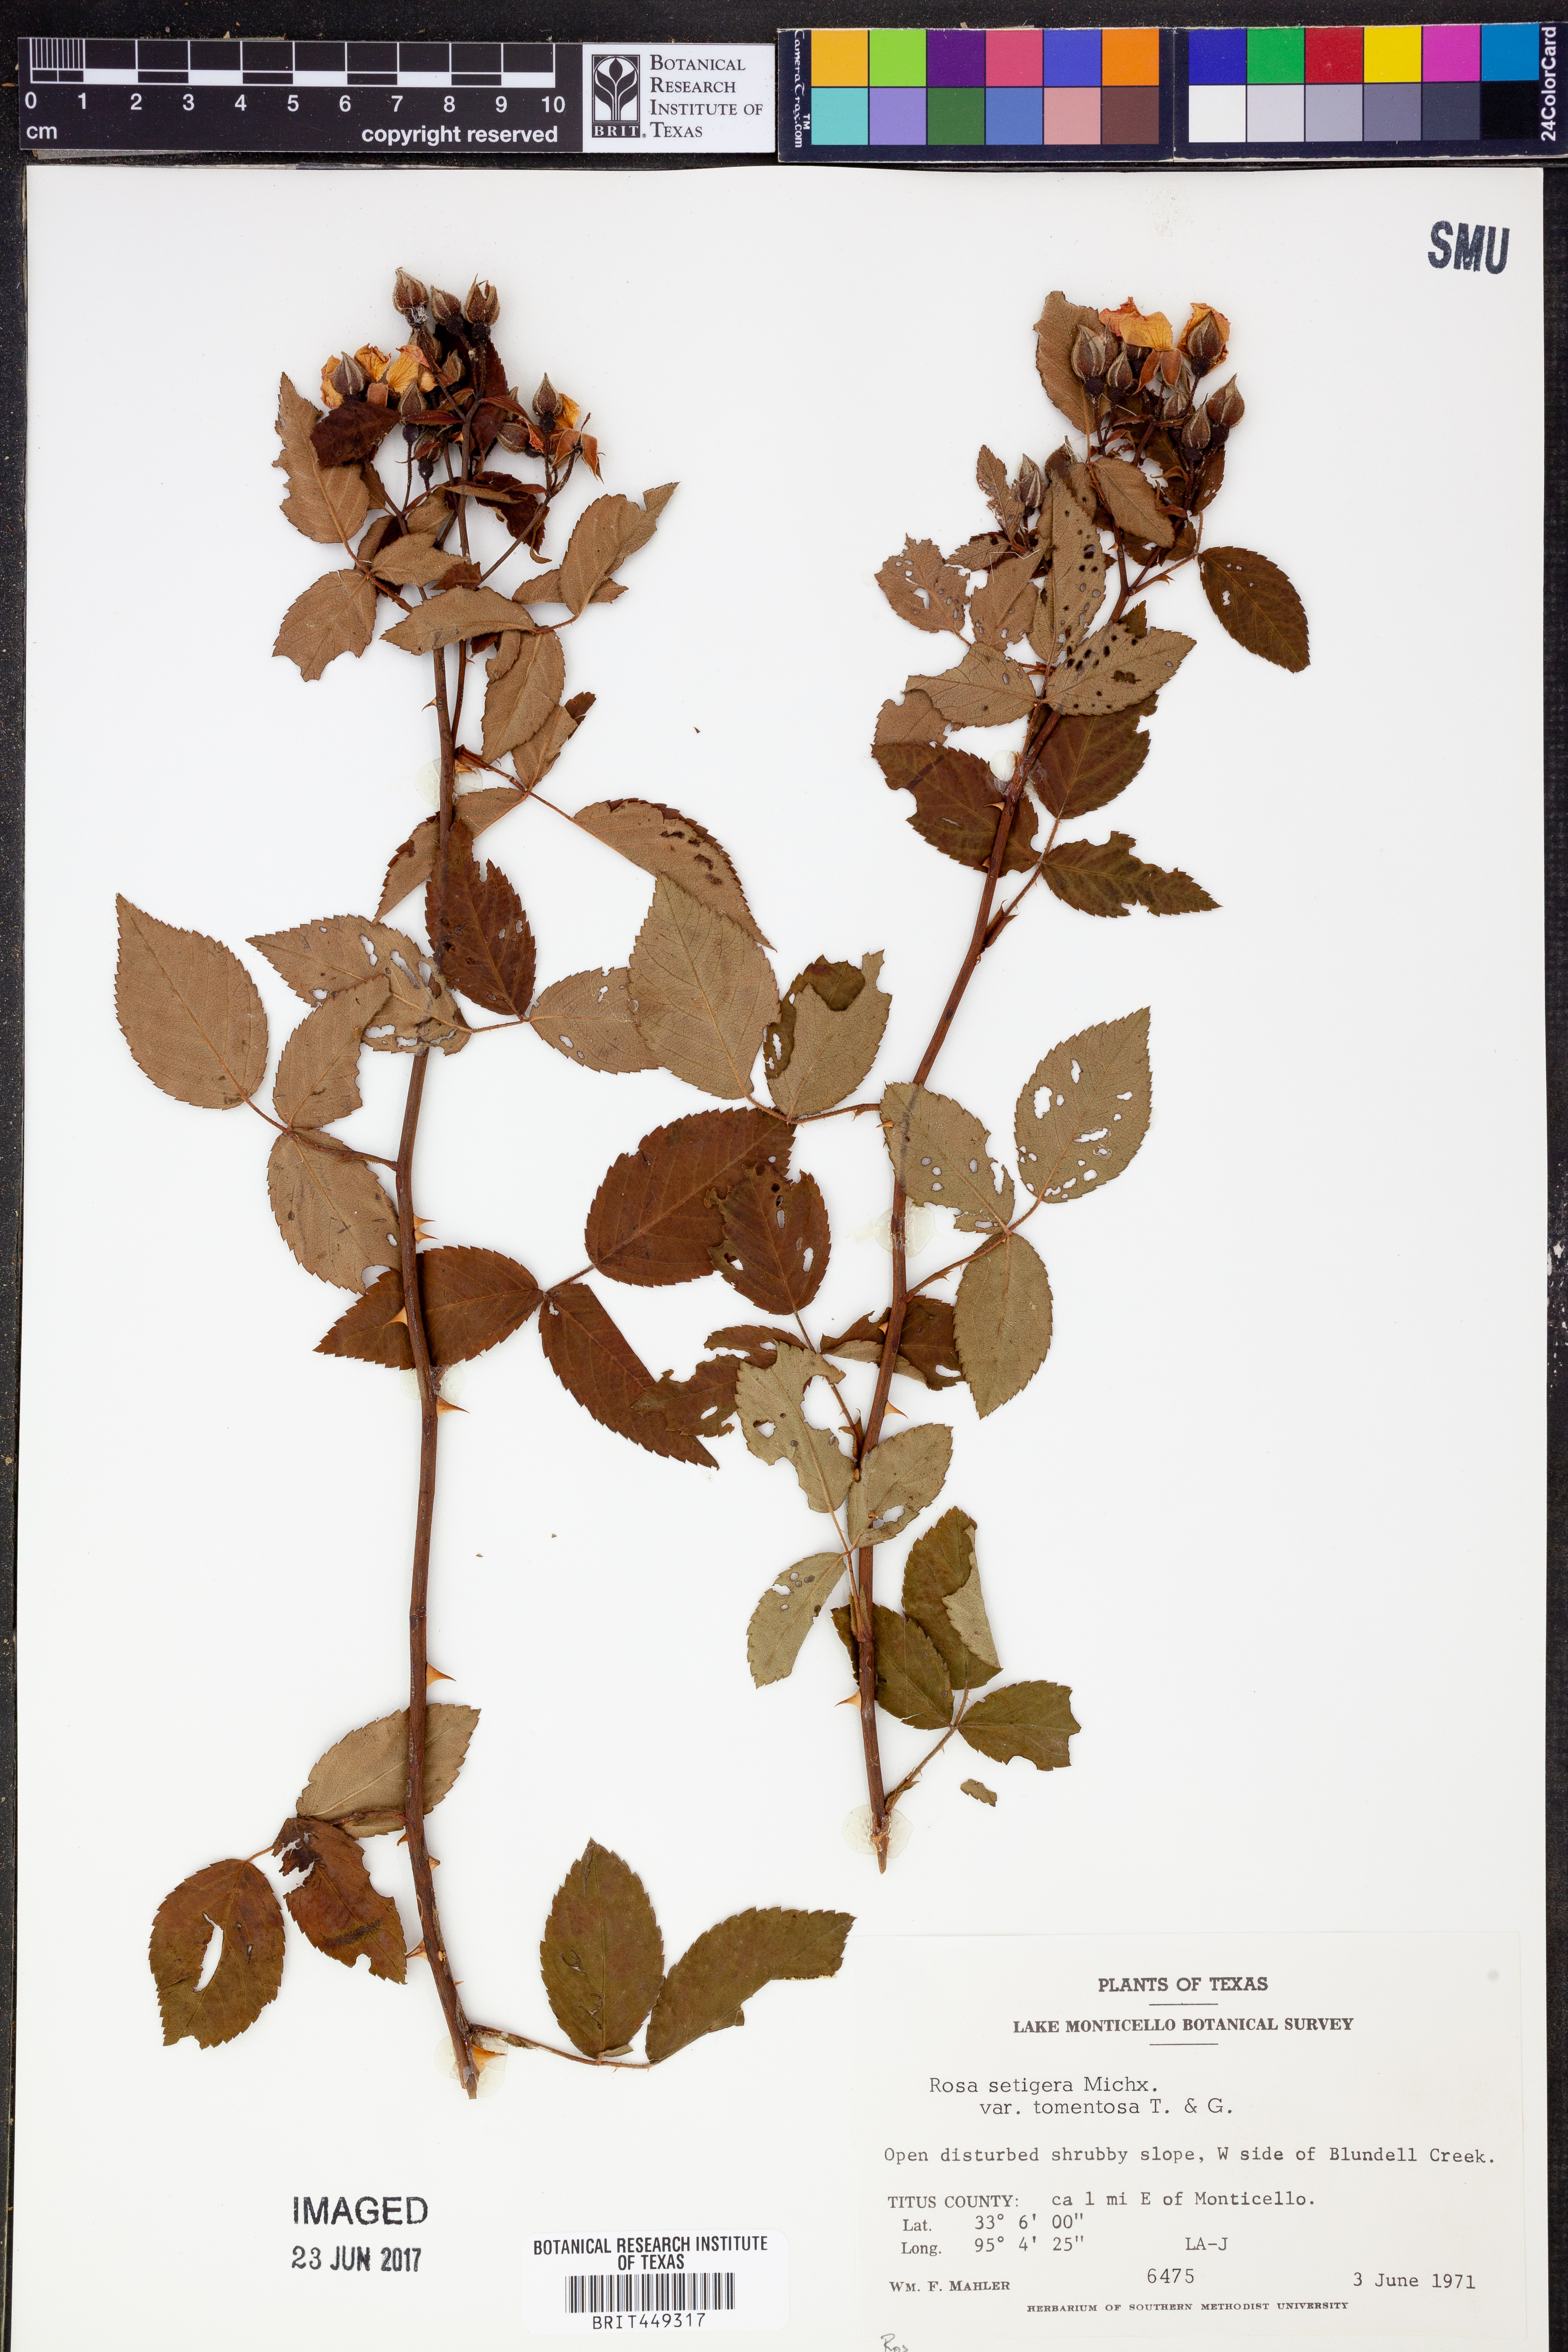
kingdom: Plantae
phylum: Tracheophyta
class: Magnoliopsida
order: Rosales
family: Rosaceae
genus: Rosa
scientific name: Rosa setigera
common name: Prairie rose
